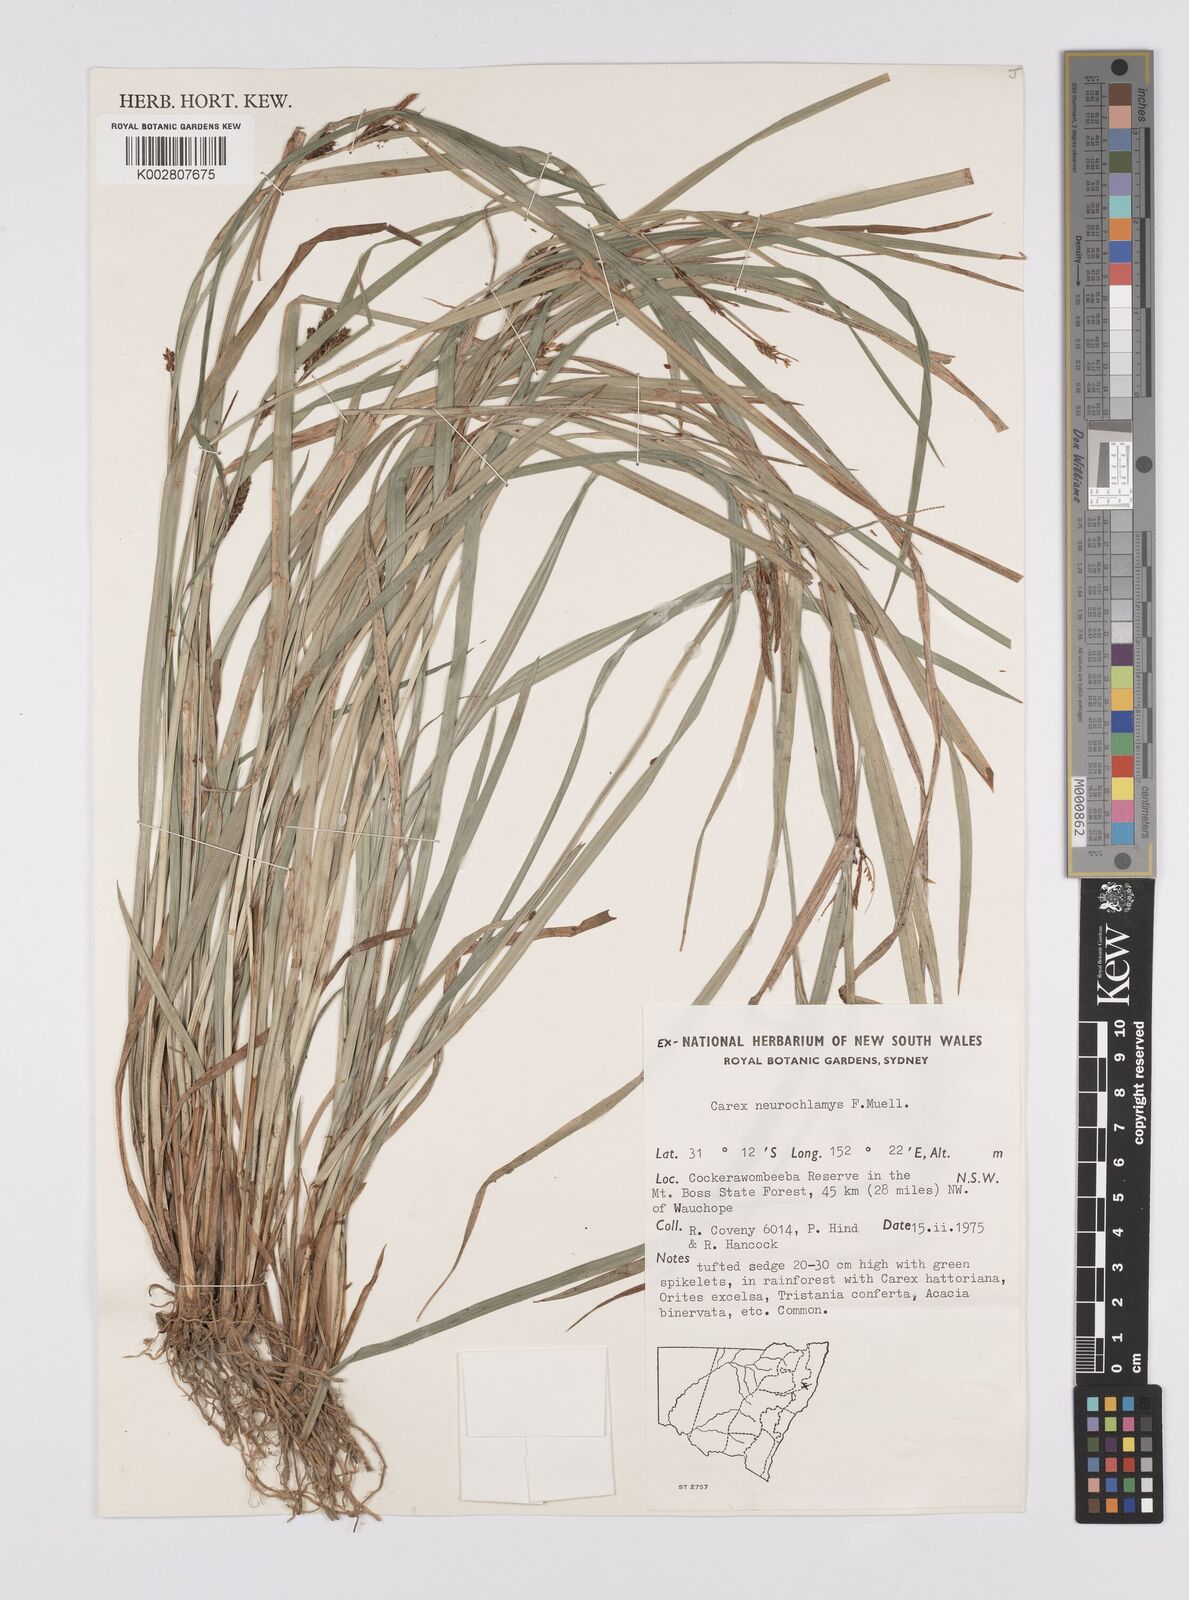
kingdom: Plantae
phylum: Tracheophyta
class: Liliopsida
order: Poales
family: Cyperaceae
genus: Carex
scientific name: Carex maculata
